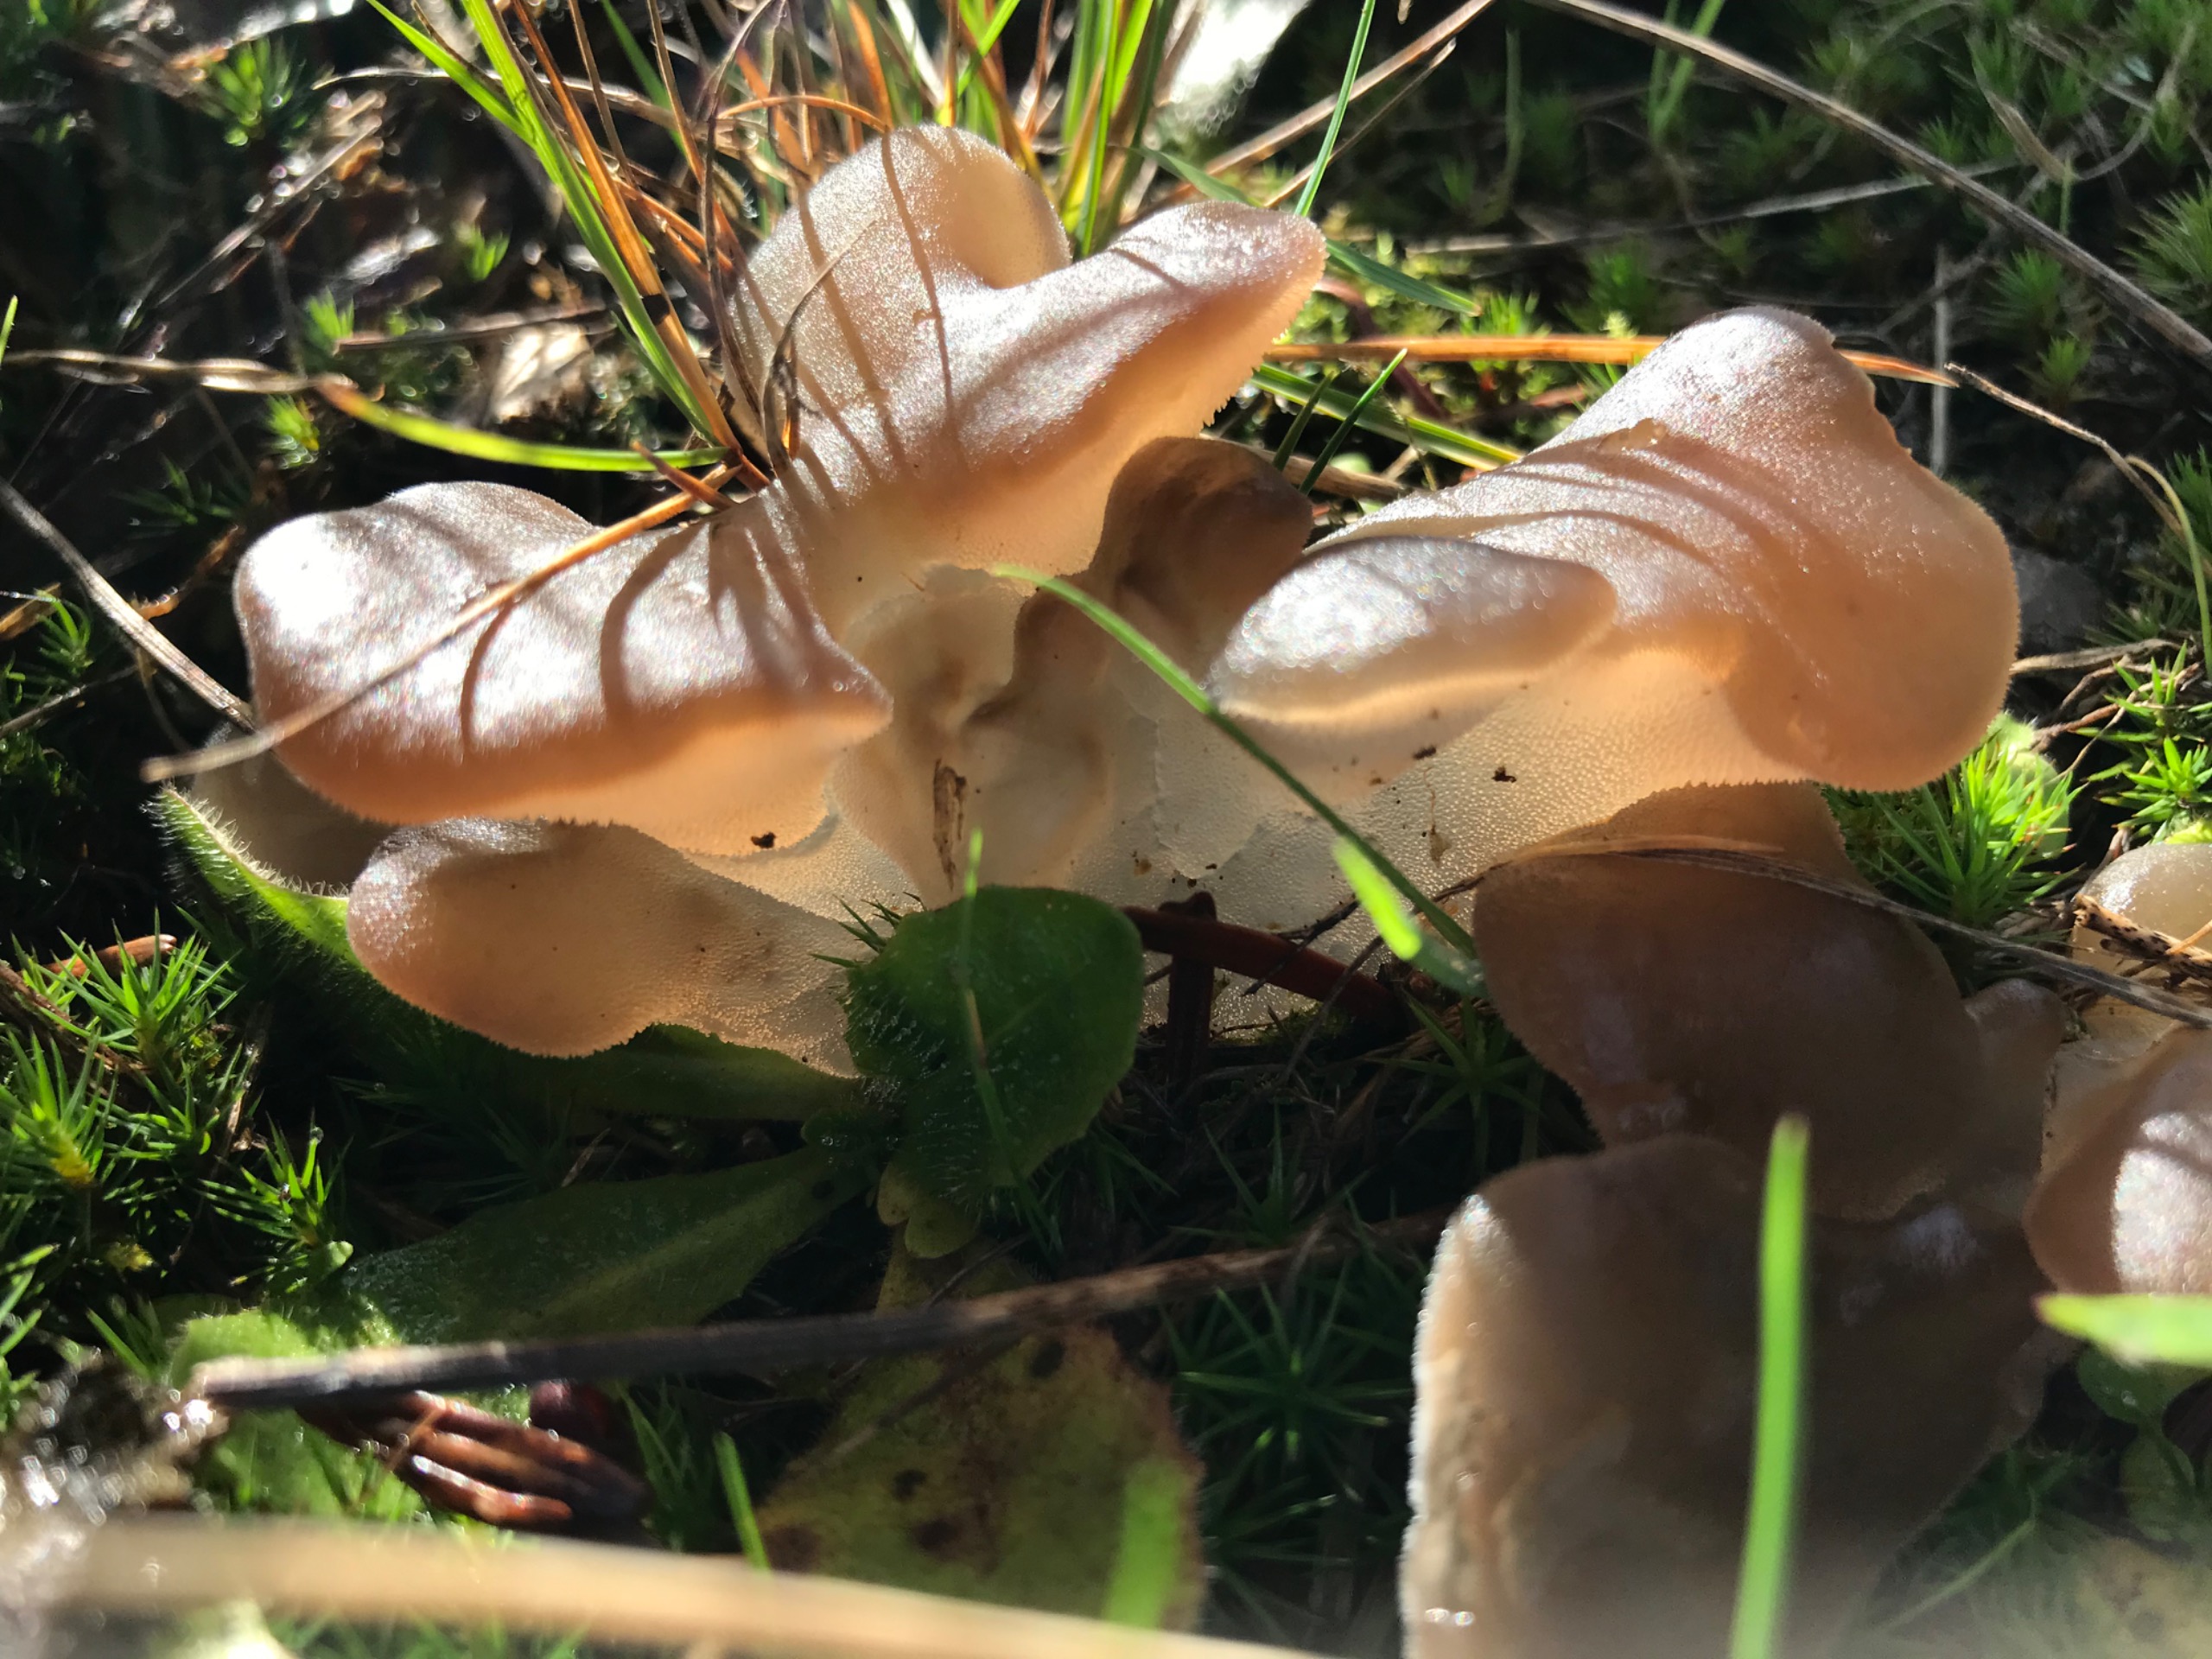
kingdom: Fungi
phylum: Basidiomycota
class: Agaricomycetes
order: Auriculariales
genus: Pseudohydnum
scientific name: Pseudohydnum gelatinosum
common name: Bævretand
